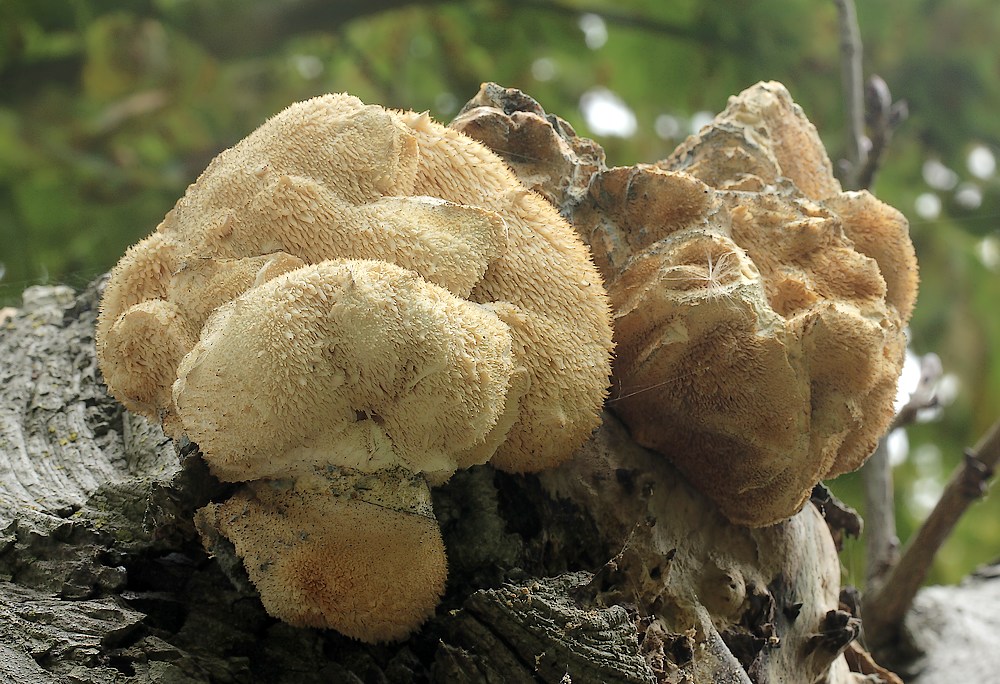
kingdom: Fungi
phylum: Basidiomycota
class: Agaricomycetes
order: Russulales
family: Hericiaceae
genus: Hericium
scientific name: Hericium cirrhatum
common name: børstepigsvamp
